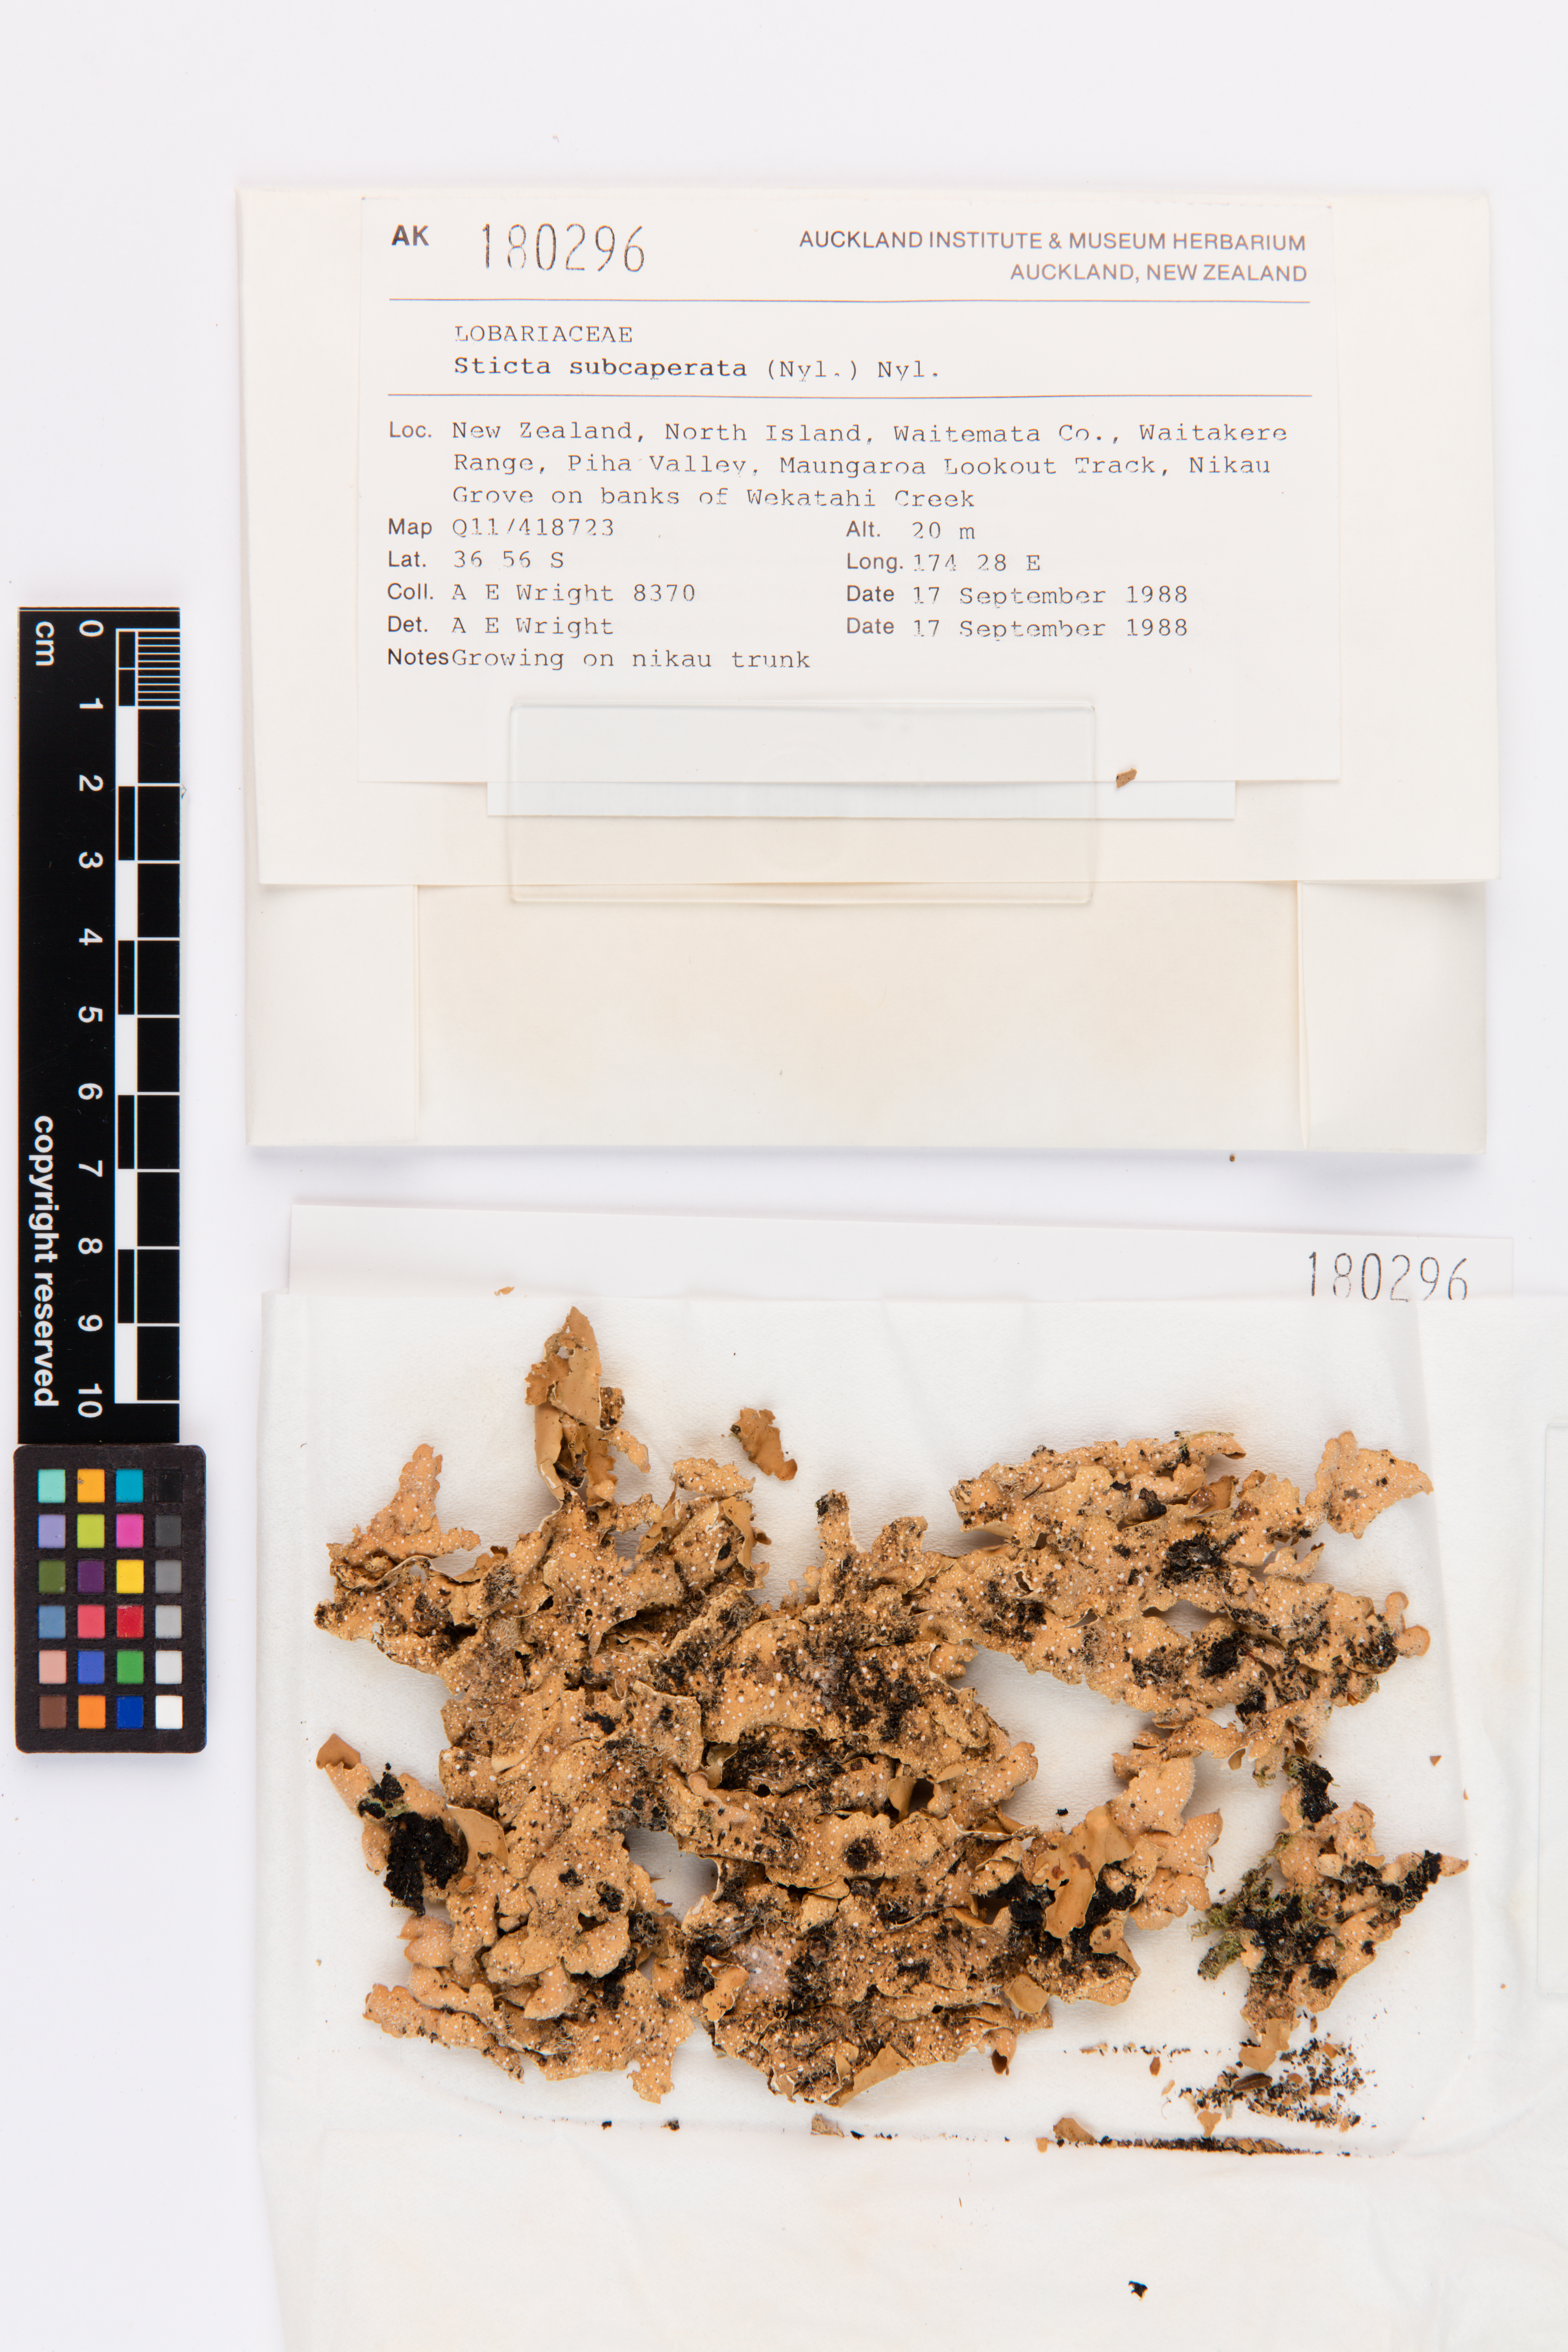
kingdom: Fungi
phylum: Ascomycota
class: Lecanoromycetes
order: Peltigerales
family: Lobariaceae
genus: Sticta
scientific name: Sticta subcaperata
